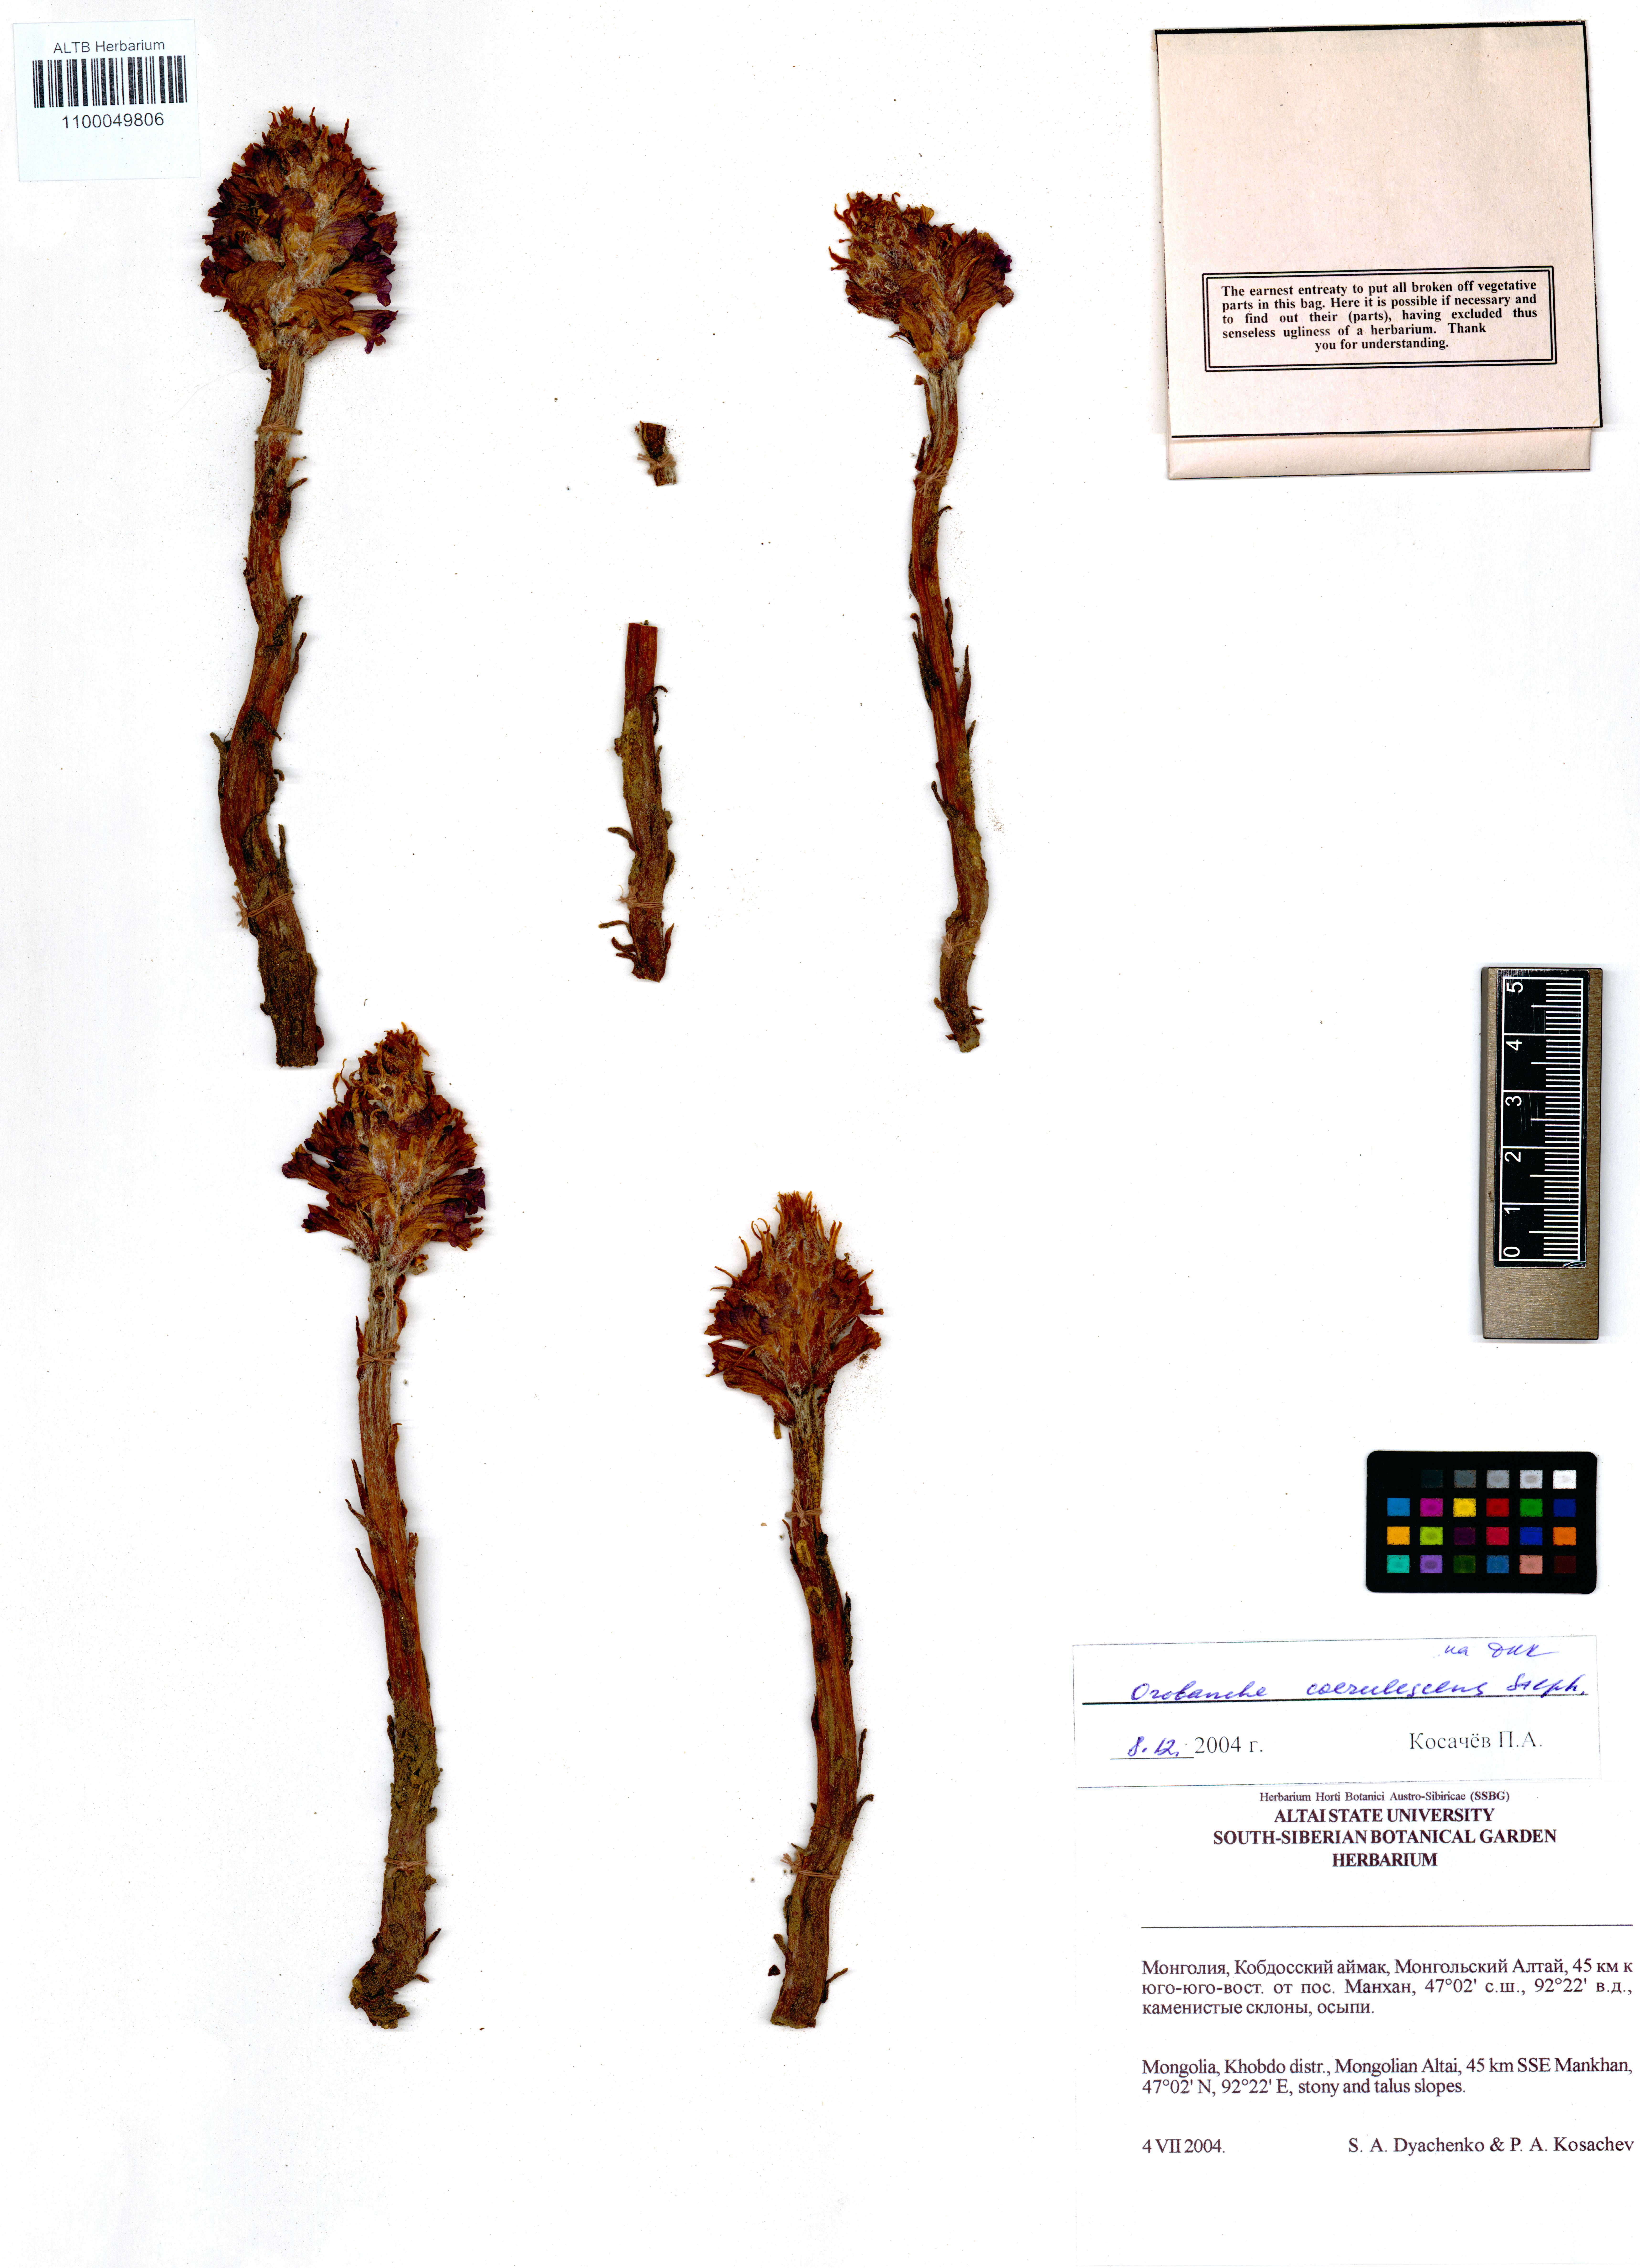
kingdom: Plantae
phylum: Tracheophyta
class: Magnoliopsida
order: Lamiales
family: Orobanchaceae
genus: Orobanche
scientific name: Orobanche coerulescens
